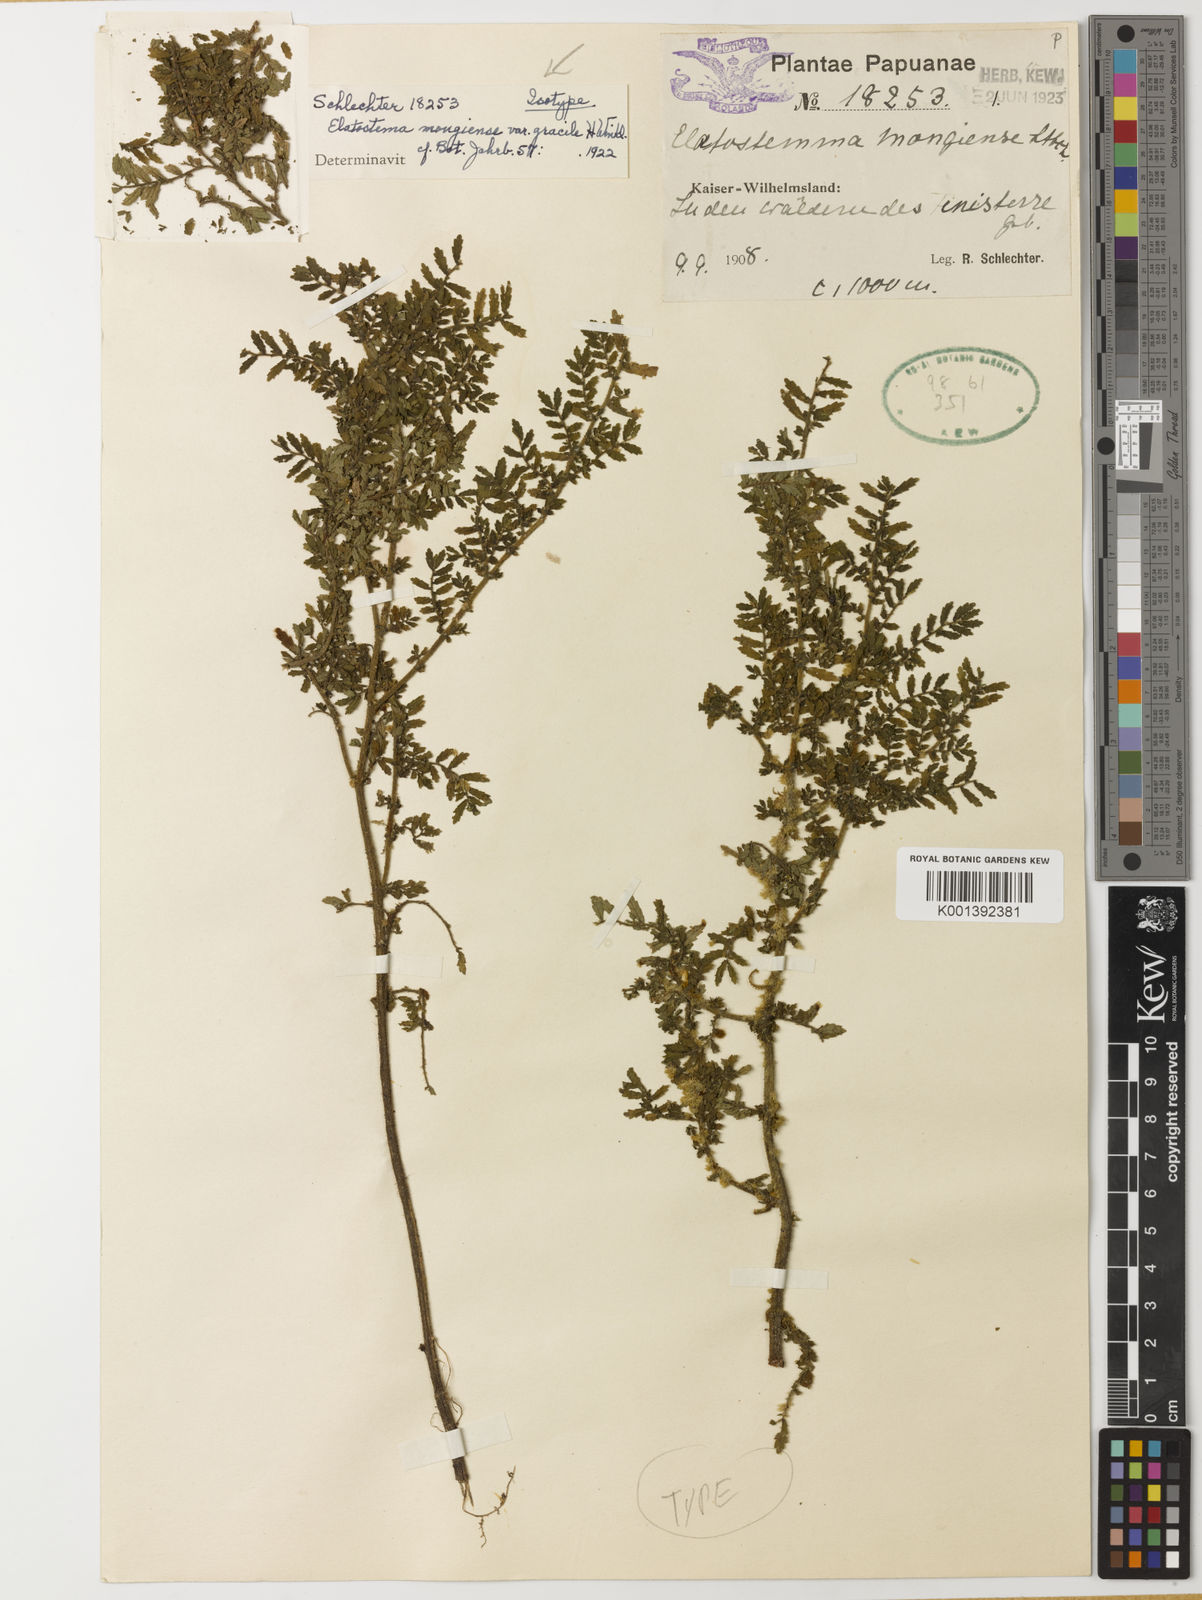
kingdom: Plantae
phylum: Tracheophyta
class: Magnoliopsida
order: Rosales
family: Urticaceae
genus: Elatostema
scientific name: Elatostema
